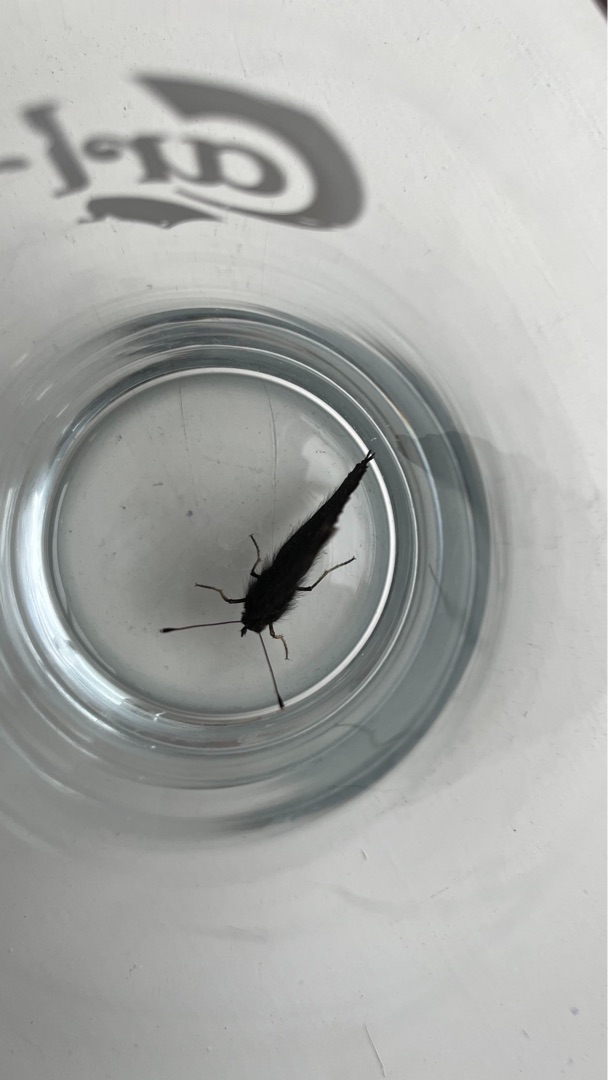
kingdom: Animalia
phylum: Arthropoda
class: Insecta
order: Lepidoptera
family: Nymphalidae
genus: Aglais
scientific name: Aglais io
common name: Dagpåfugleøje
